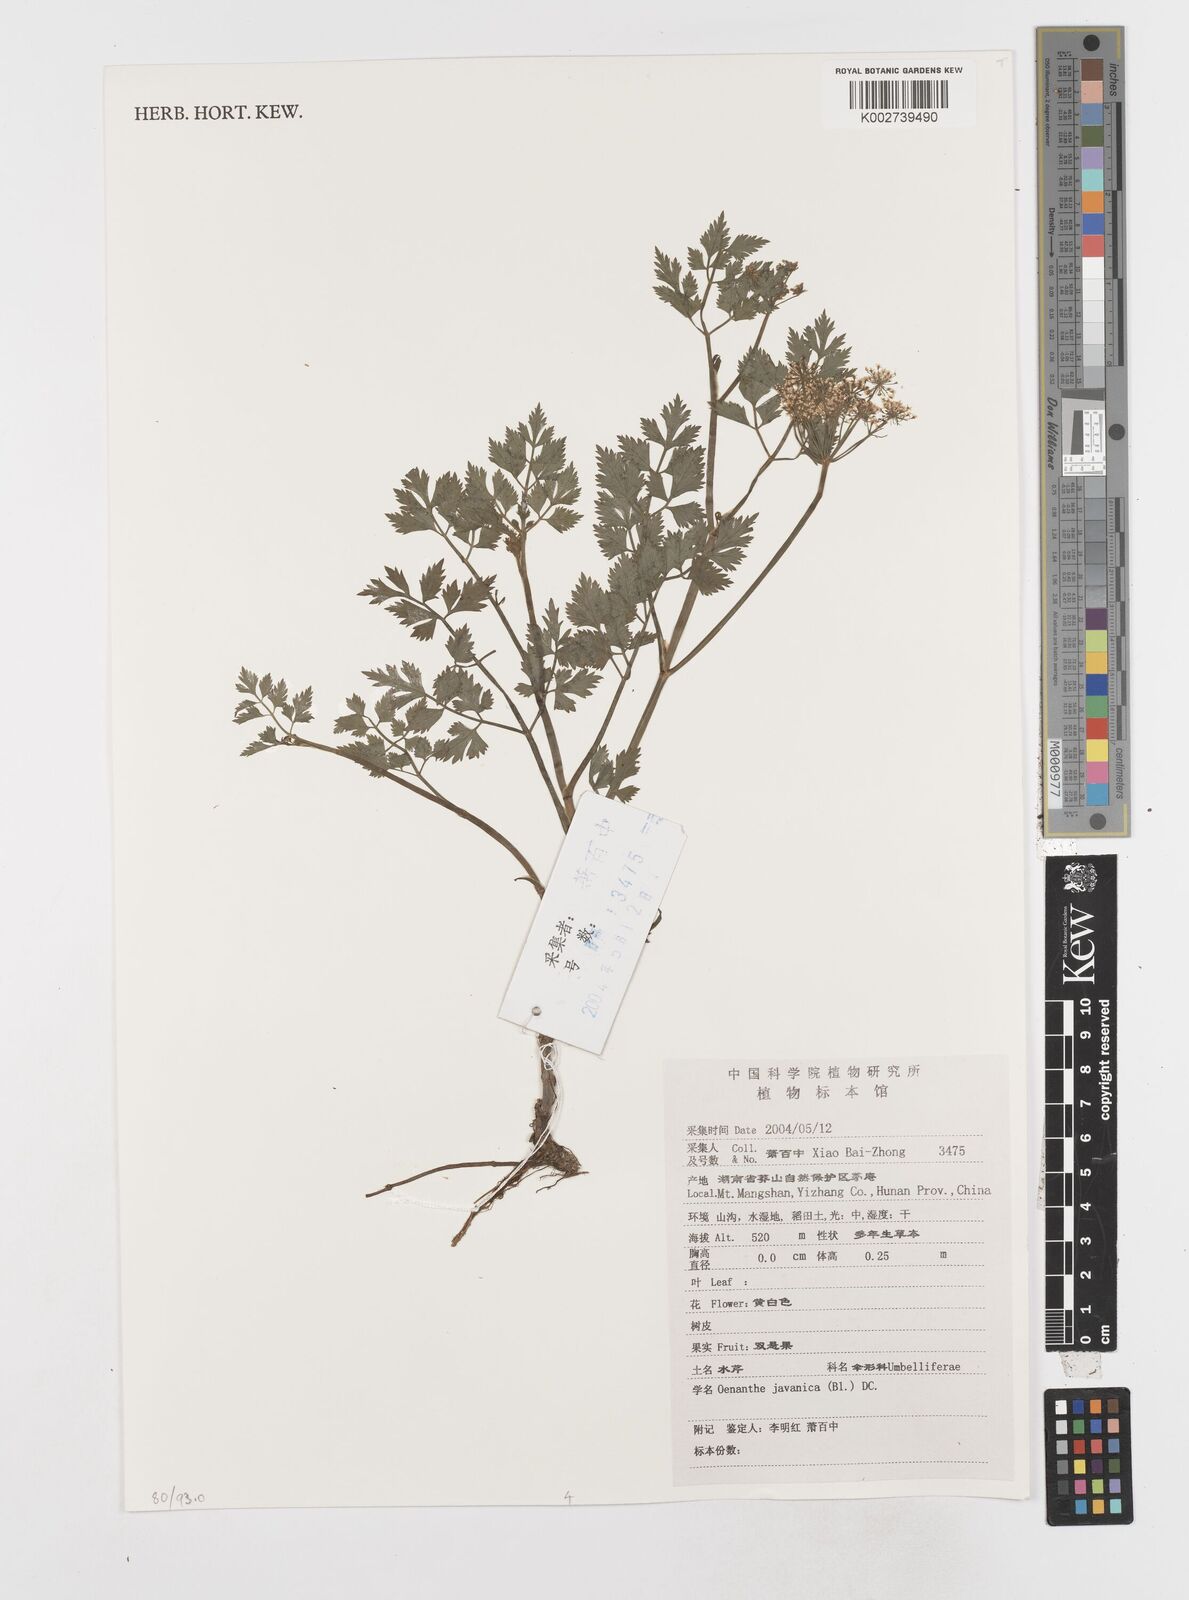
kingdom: Plantae
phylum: Tracheophyta
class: Magnoliopsida
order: Apiales
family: Apiaceae
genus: Oenanthe
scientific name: Oenanthe javanica
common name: Java water-dropwort
